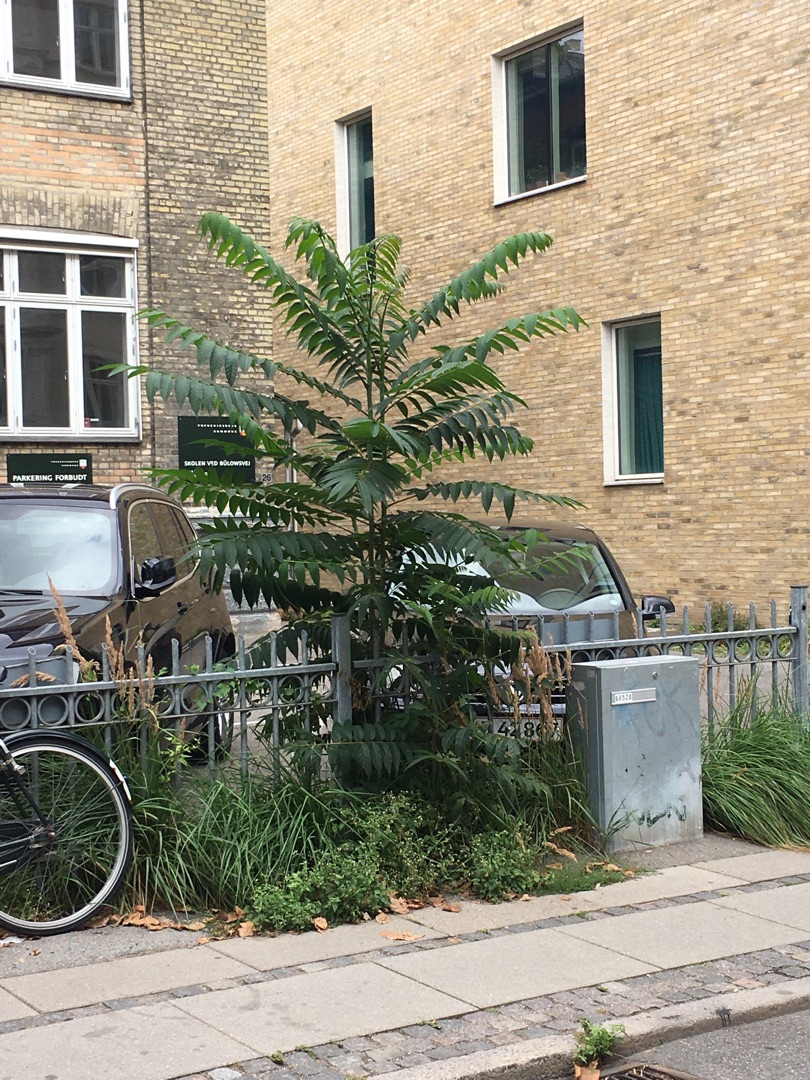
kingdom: Plantae
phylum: Tracheophyta
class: Magnoliopsida
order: Sapindales
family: Anacardiaceae
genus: Rhus
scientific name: Rhus
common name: Hjortetaktræslægten
